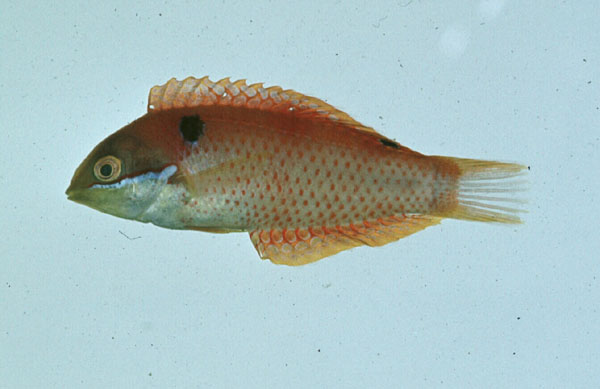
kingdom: Animalia
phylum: Chordata
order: Perciformes
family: Labridae
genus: Macropharyngodon
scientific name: Macropharyngodon vivienae
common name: Madagascar wrasse
